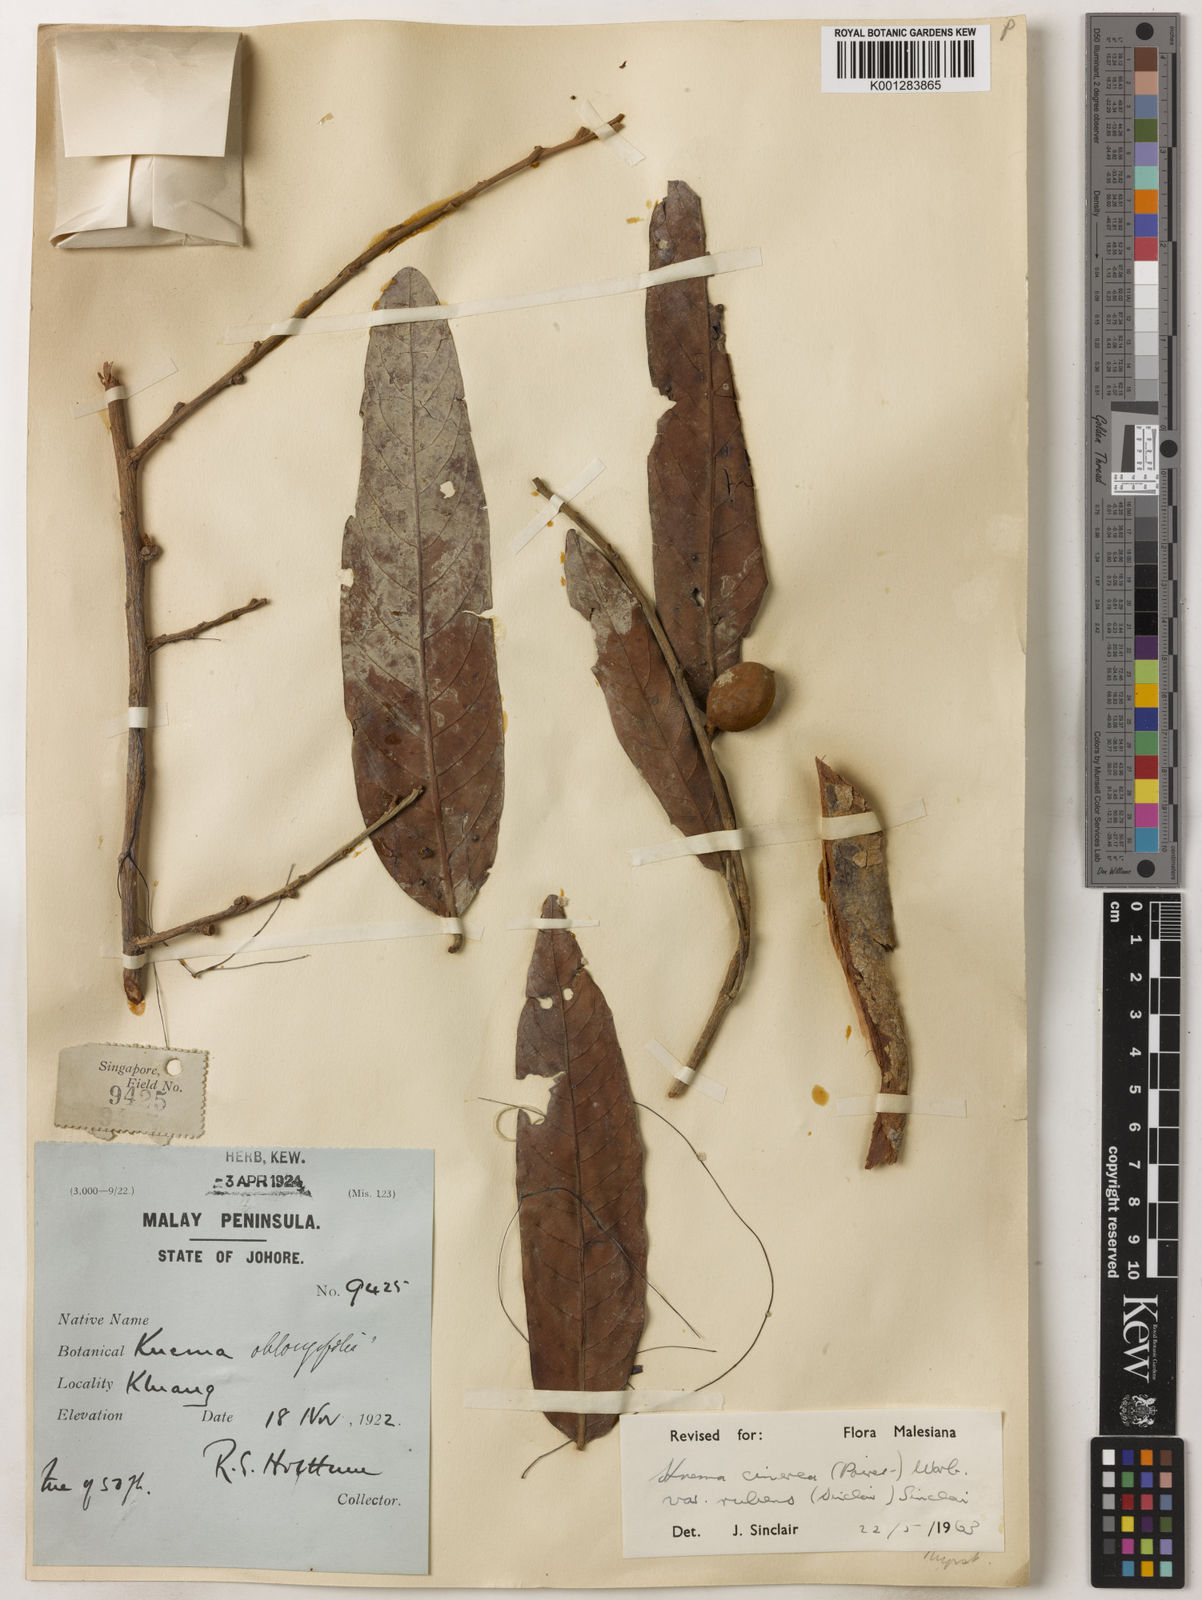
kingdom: Plantae
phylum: Tracheophyta
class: Magnoliopsida
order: Magnoliales
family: Myristicaceae
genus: Knema
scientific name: Knema
